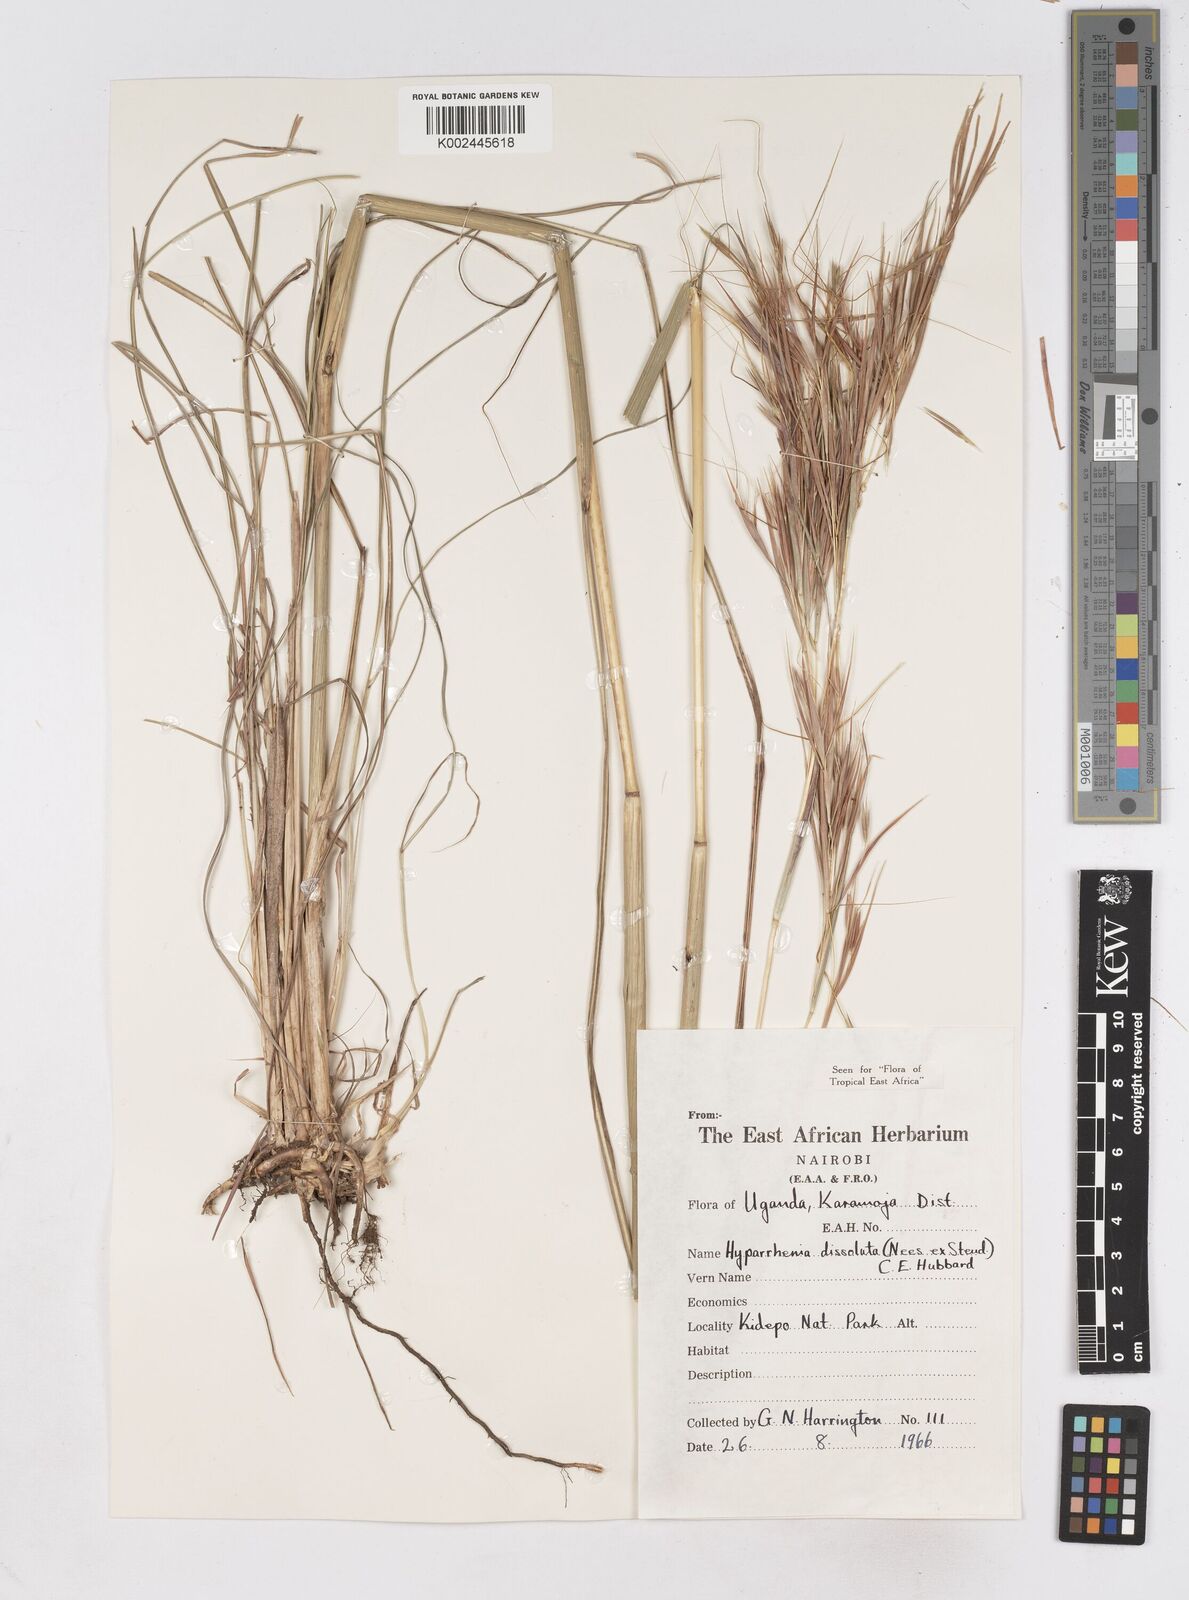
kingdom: Plantae
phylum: Tracheophyta
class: Liliopsida
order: Poales
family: Poaceae
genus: Hyperthelia
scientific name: Hyperthelia dissoluta
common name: Yellow thatching grass
